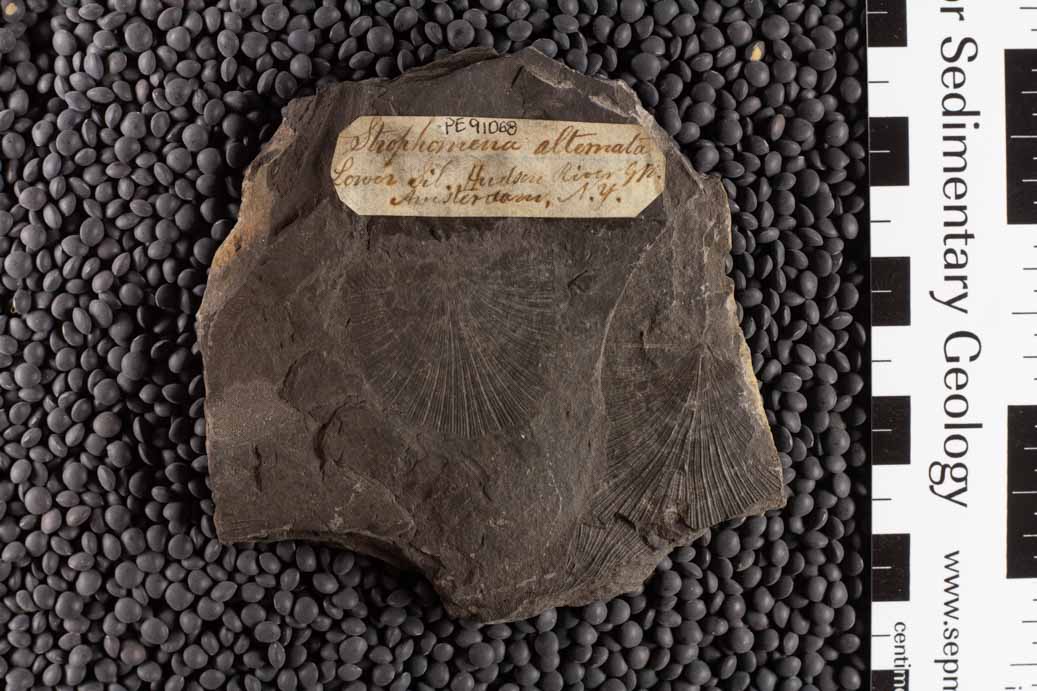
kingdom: Animalia
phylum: Brachiopoda
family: Strophomenidae
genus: Rafinesquina
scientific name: Rafinesquina Leptaena alternata
